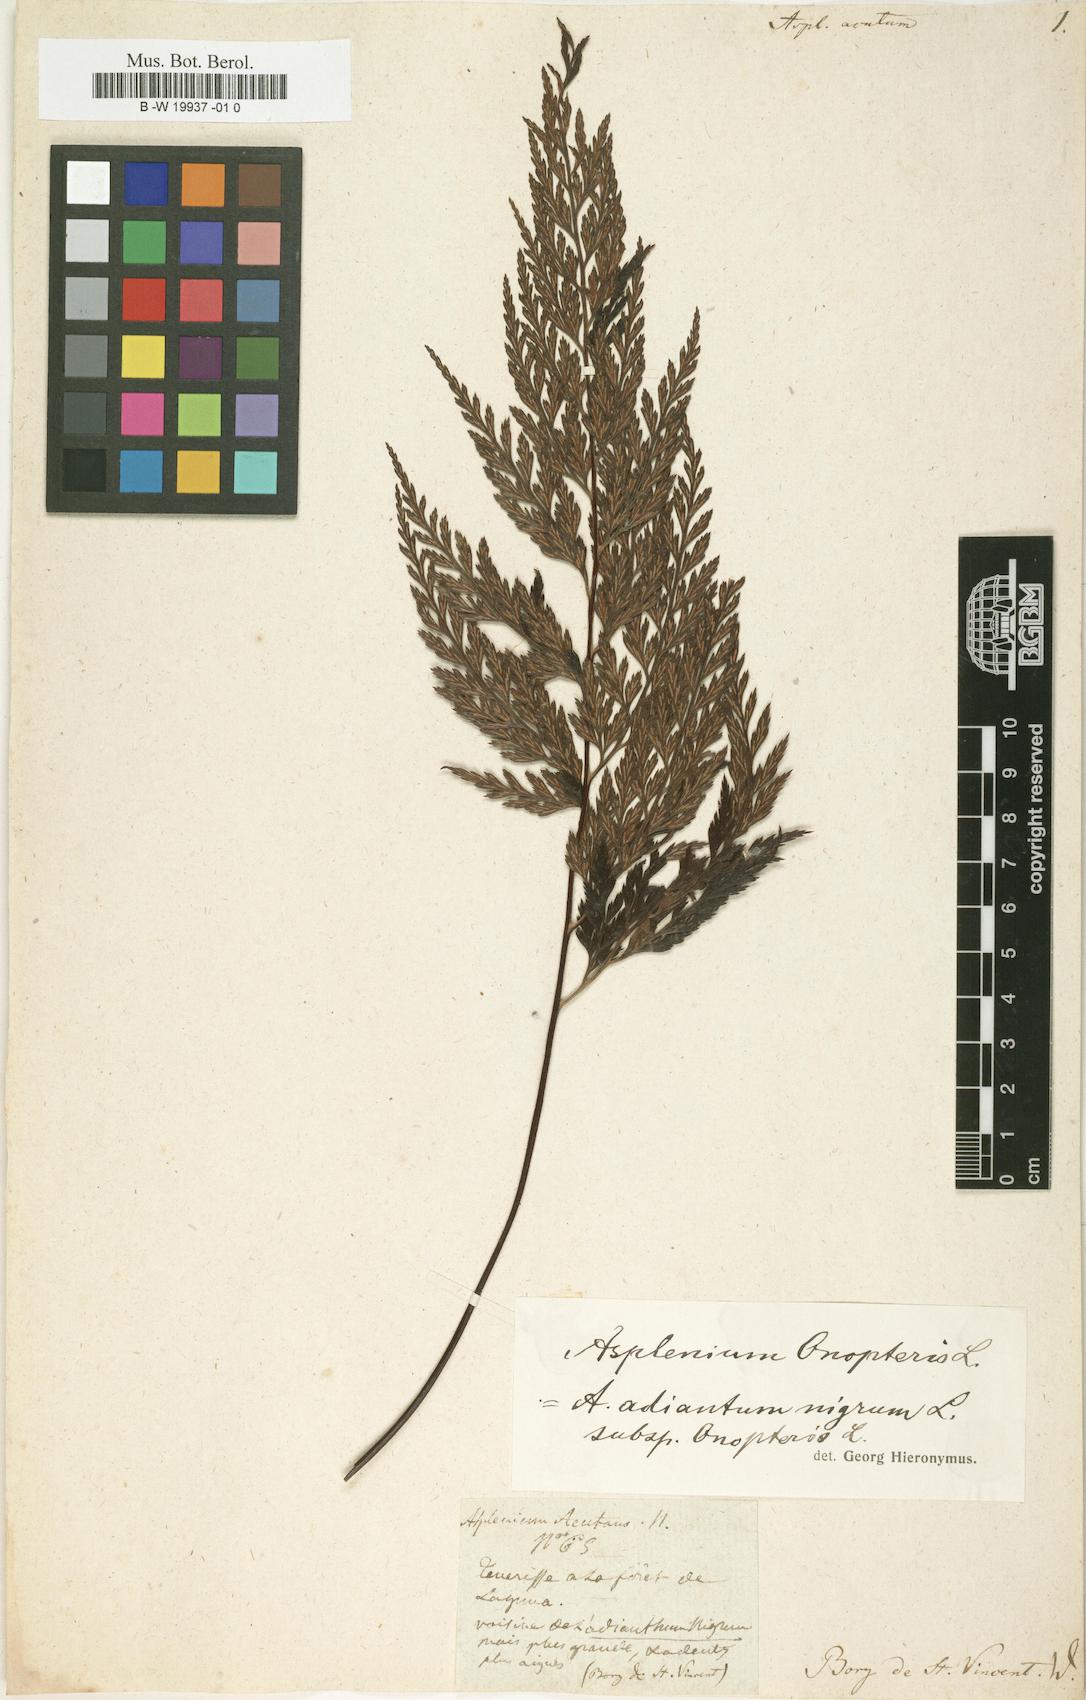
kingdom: Plantae
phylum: Tracheophyta
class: Polypodiopsida
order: Polypodiales
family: Aspleniaceae
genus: Asplenium
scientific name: Asplenium onopteris
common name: Irish spleenwort
